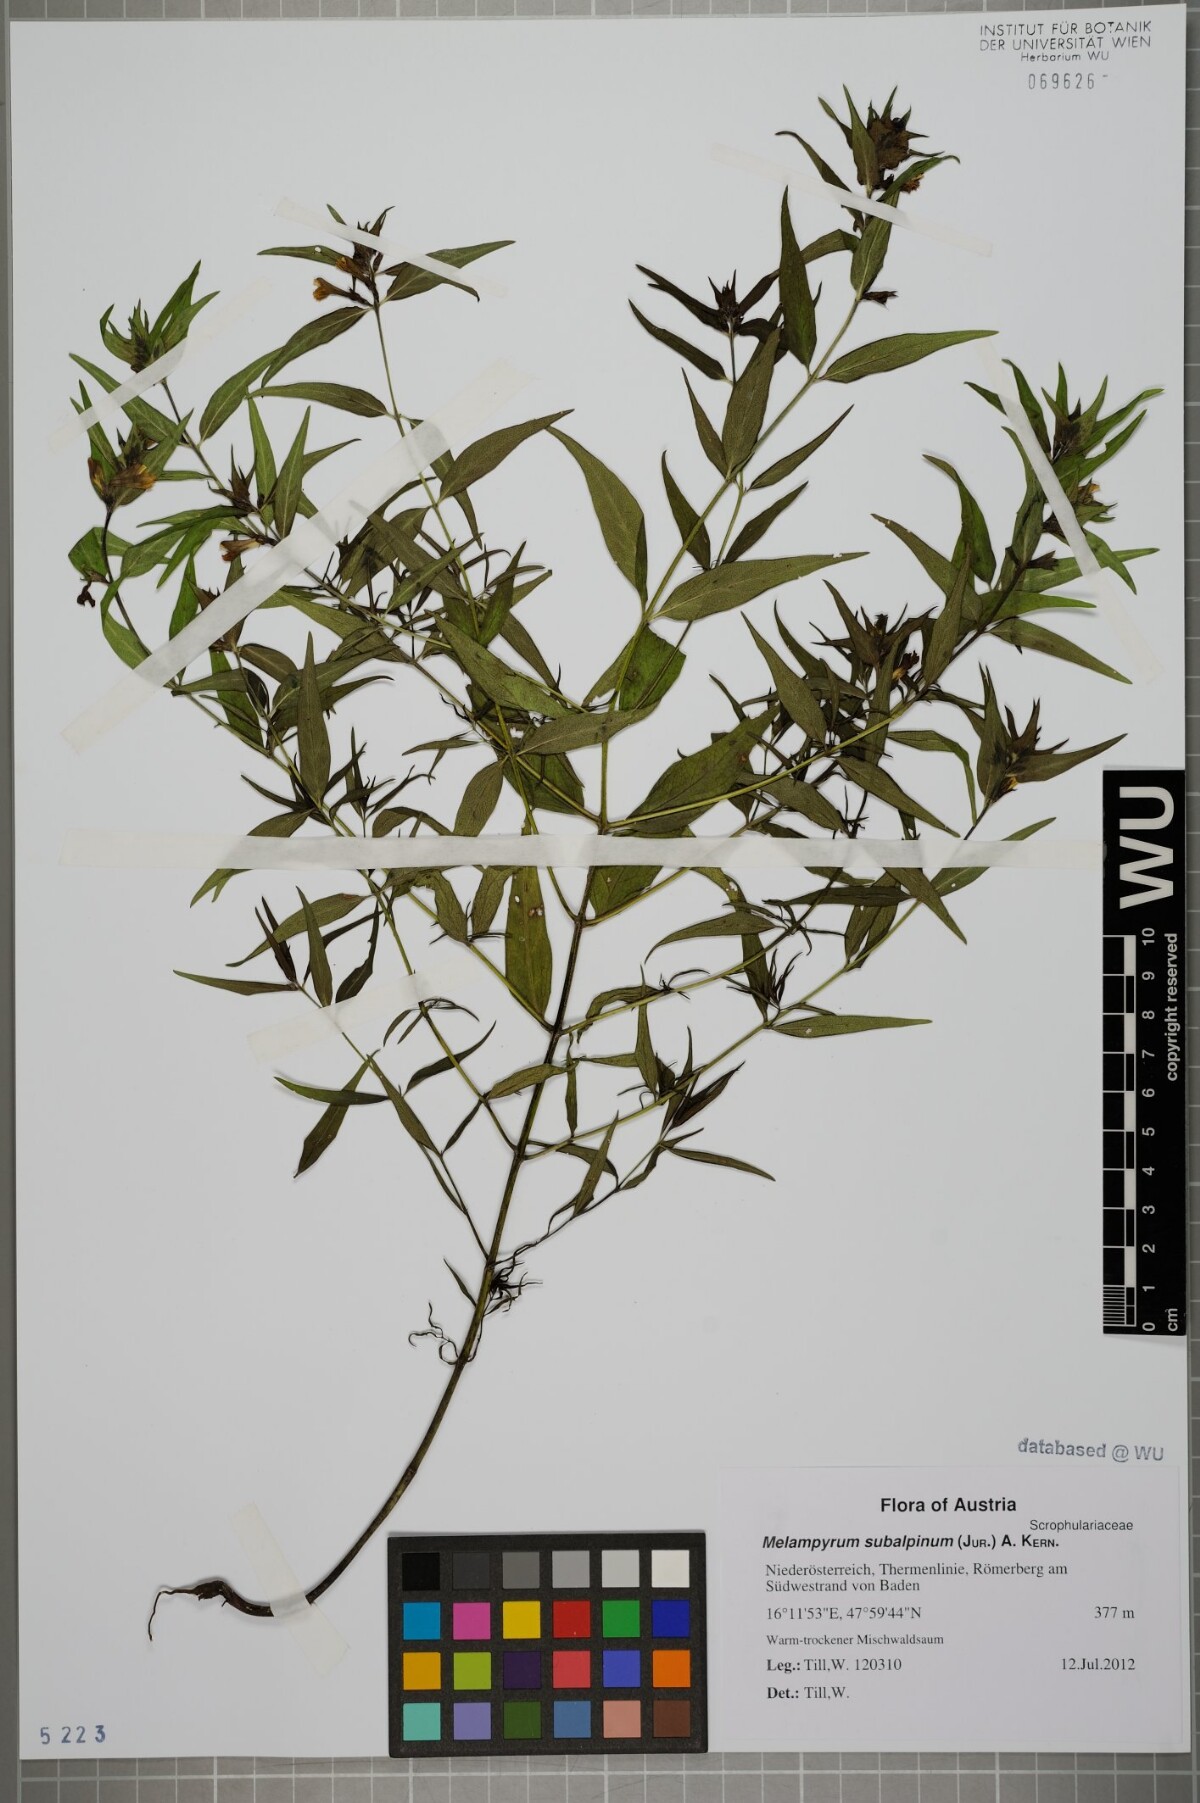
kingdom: Plantae
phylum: Tracheophyta
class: Magnoliopsida
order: Lamiales
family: Orobanchaceae
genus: Melampyrum
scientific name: Melampyrum subalpinum
